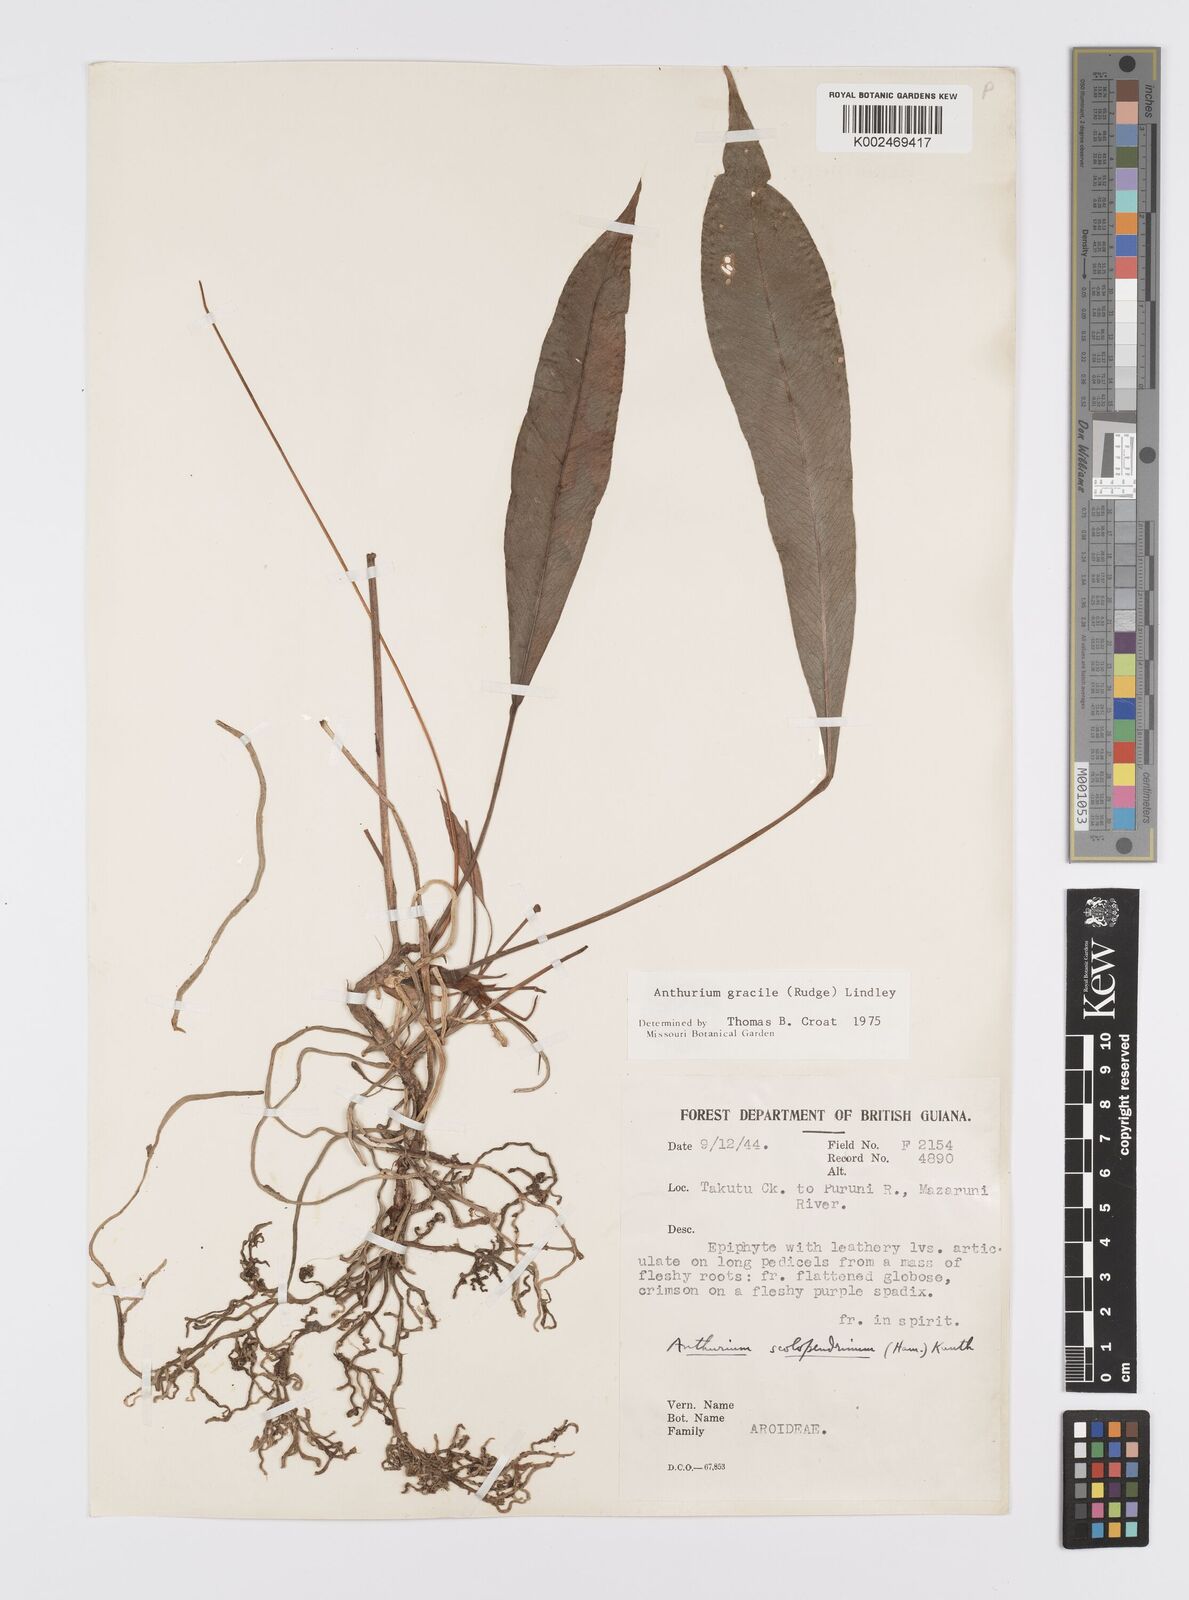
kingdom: Plantae
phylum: Tracheophyta
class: Liliopsida
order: Alismatales
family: Araceae
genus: Anthurium
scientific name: Anthurium gracile
